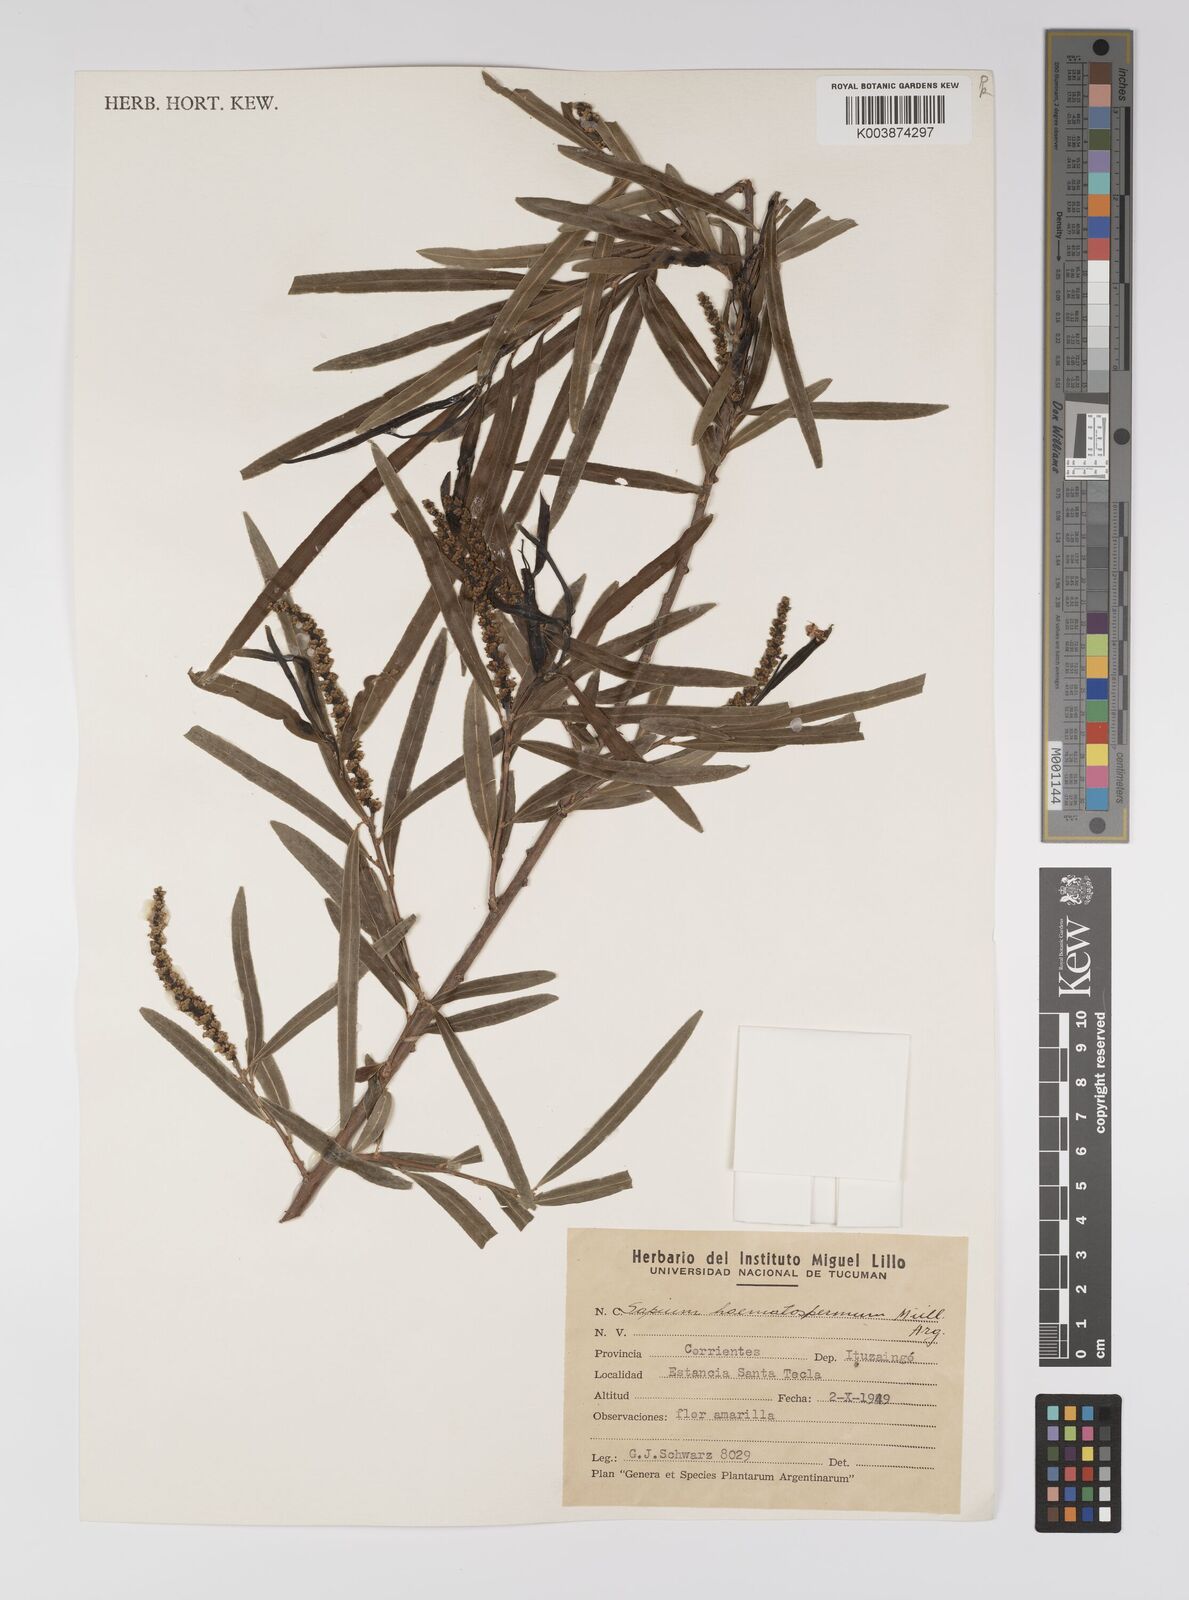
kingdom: Plantae
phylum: Tracheophyta
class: Magnoliopsida
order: Malpighiales
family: Euphorbiaceae
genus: Sapium
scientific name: Sapium haematospermum
